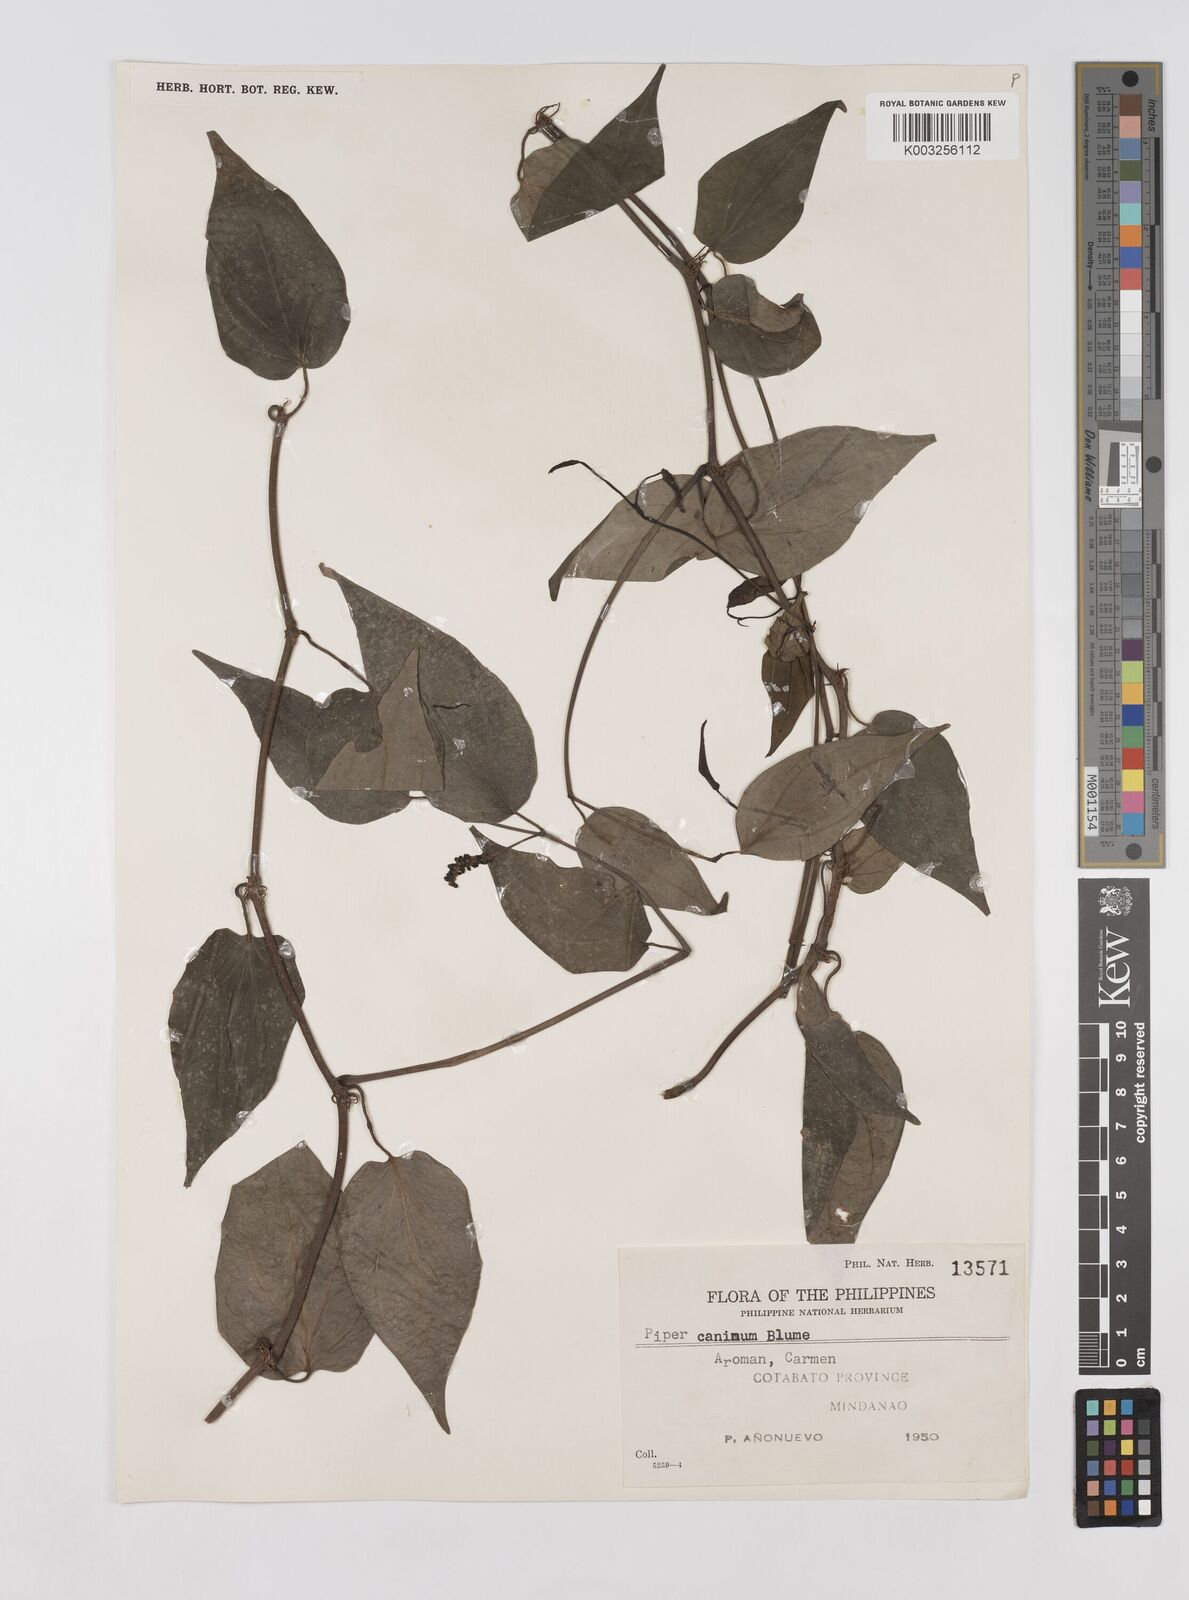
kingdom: Plantae
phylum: Tracheophyta
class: Magnoliopsida
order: Piperales
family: Piperaceae
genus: Piper
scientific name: Piper lanatum
